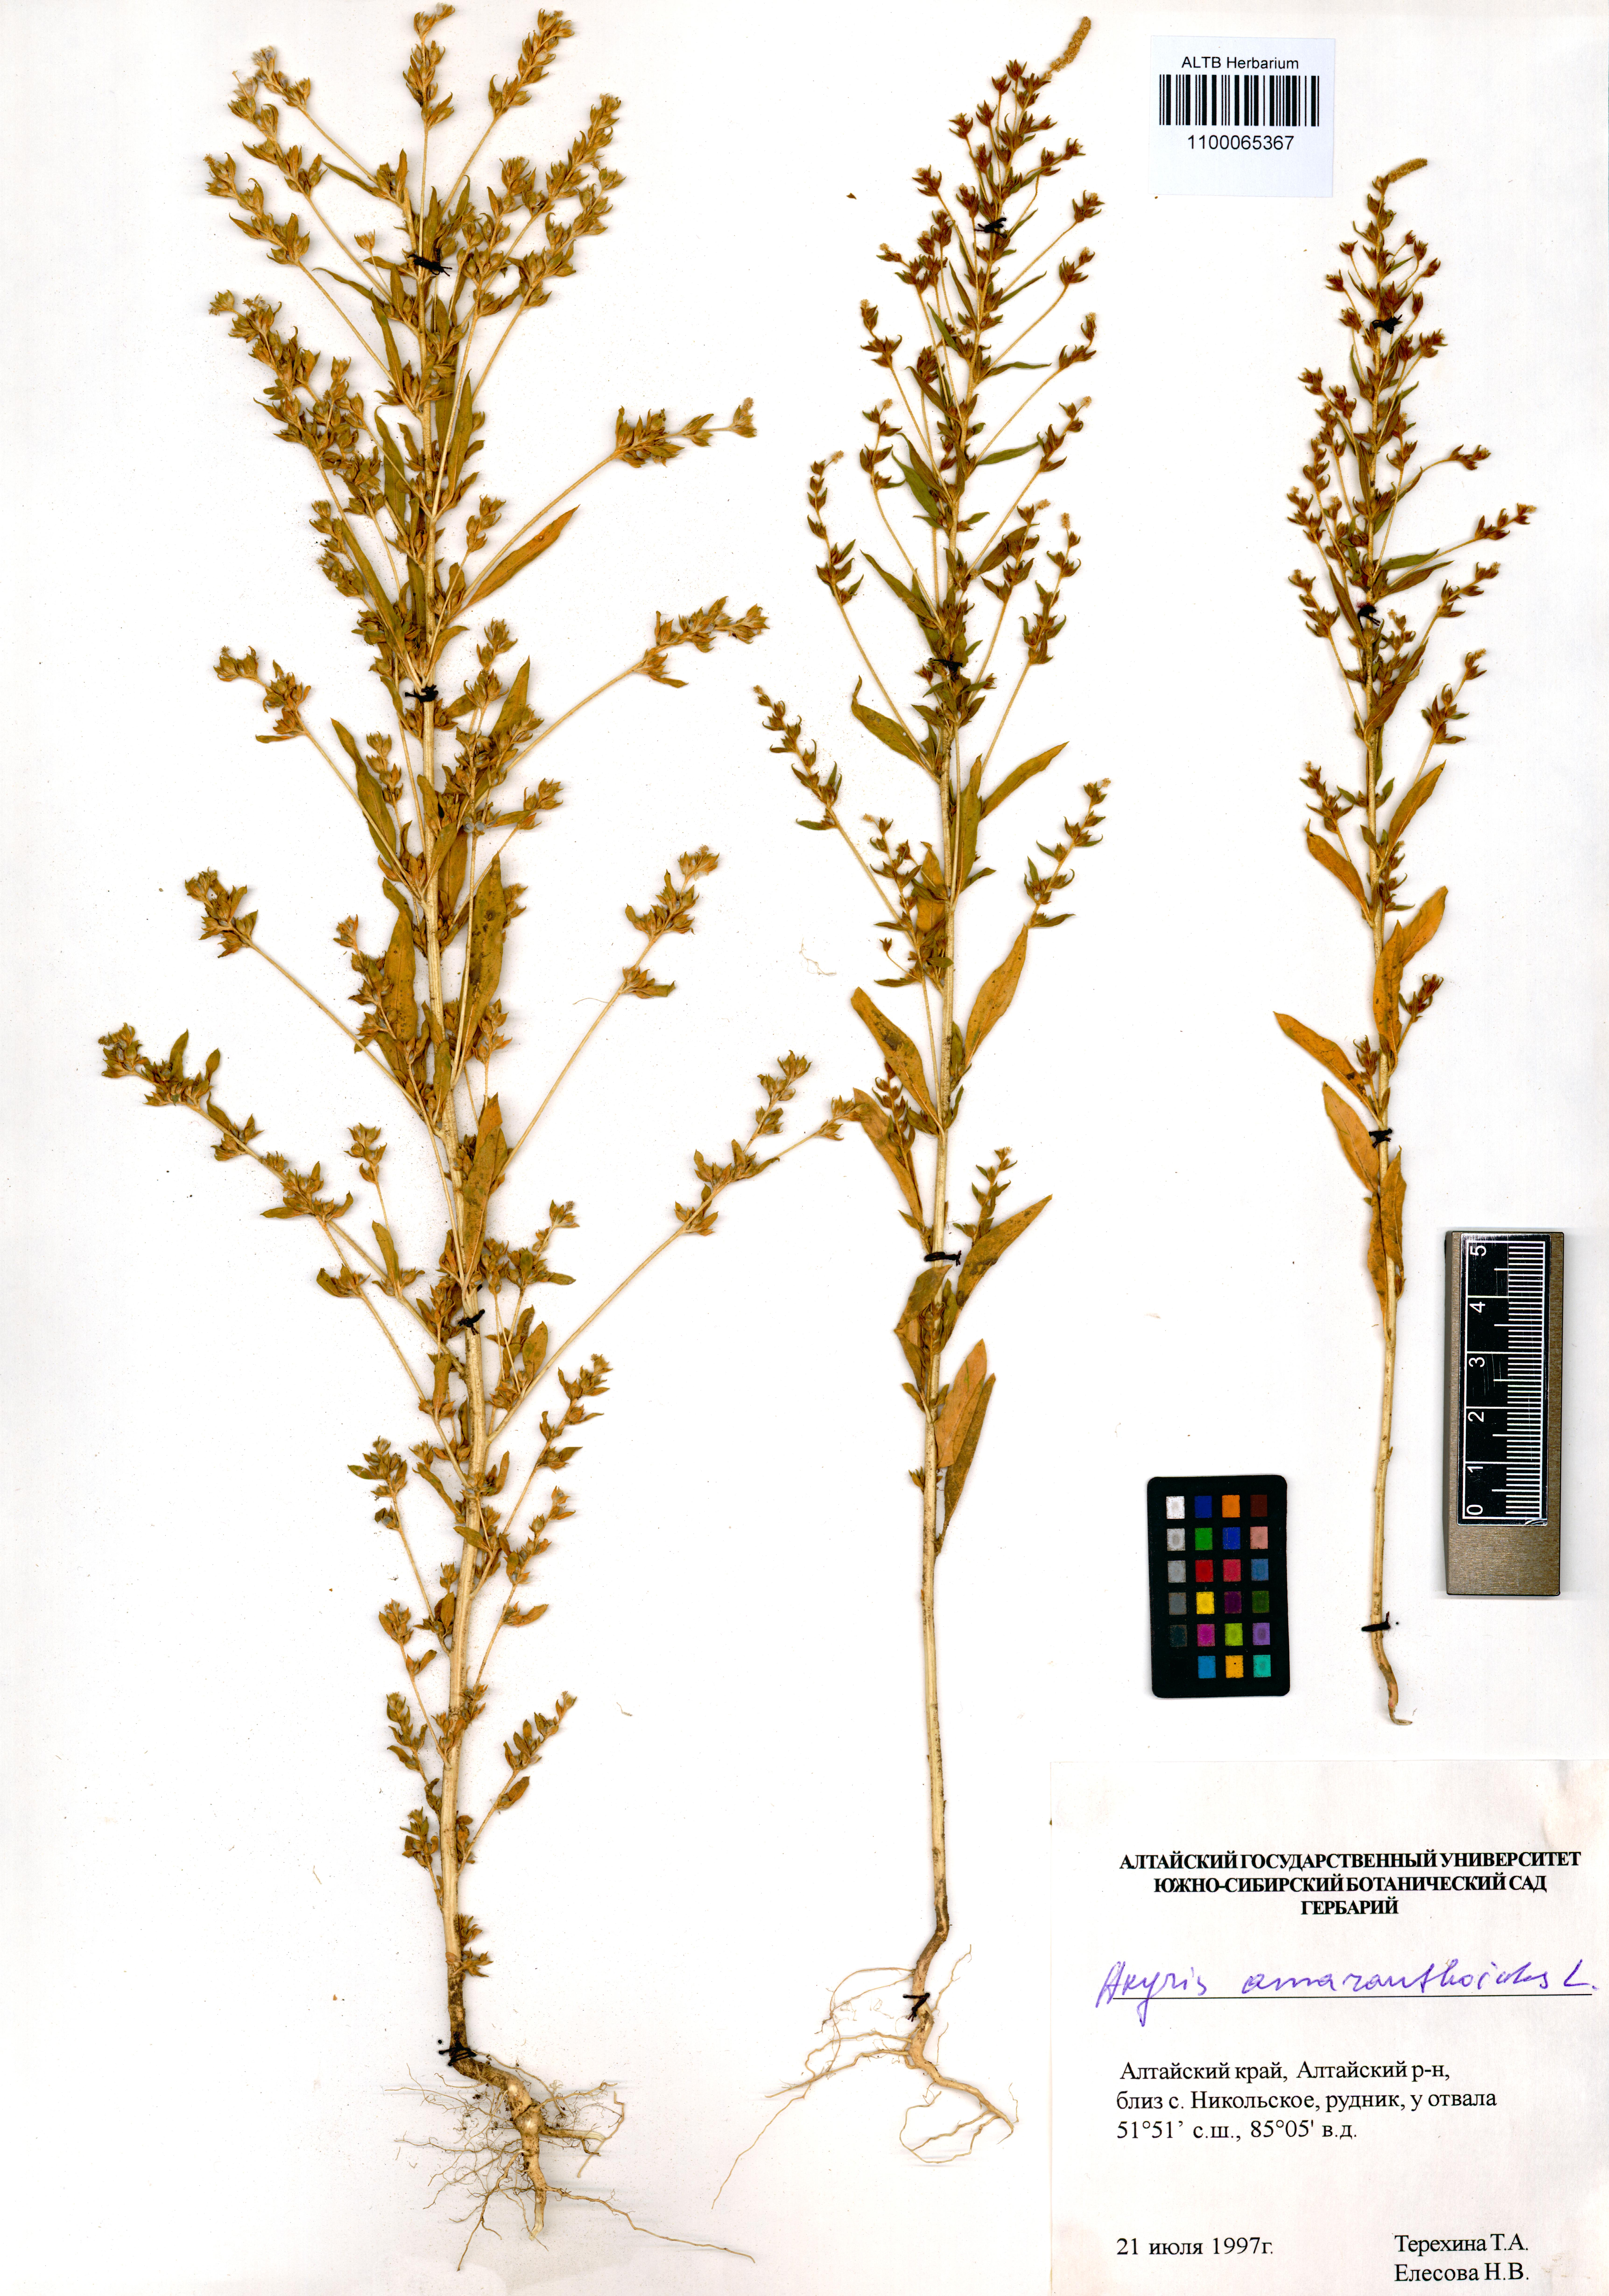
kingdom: Plantae
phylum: Tracheophyta
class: Magnoliopsida
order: Caryophyllales
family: Amaranthaceae
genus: Axyris
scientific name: Axyris amaranthoides
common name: Russian pigweed
